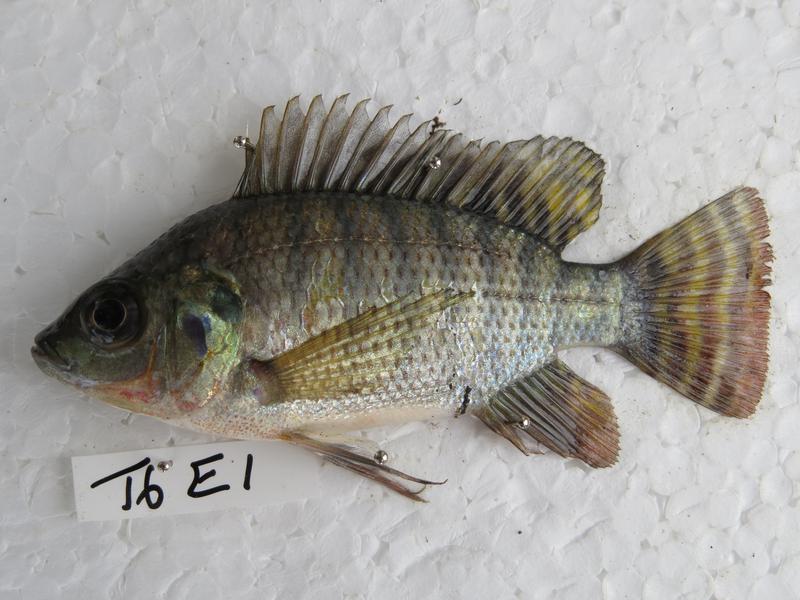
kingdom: Animalia
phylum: Chordata
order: Perciformes
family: Cichlidae
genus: Oreochromis
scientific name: Oreochromis niloticus
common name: Nile tilapia
